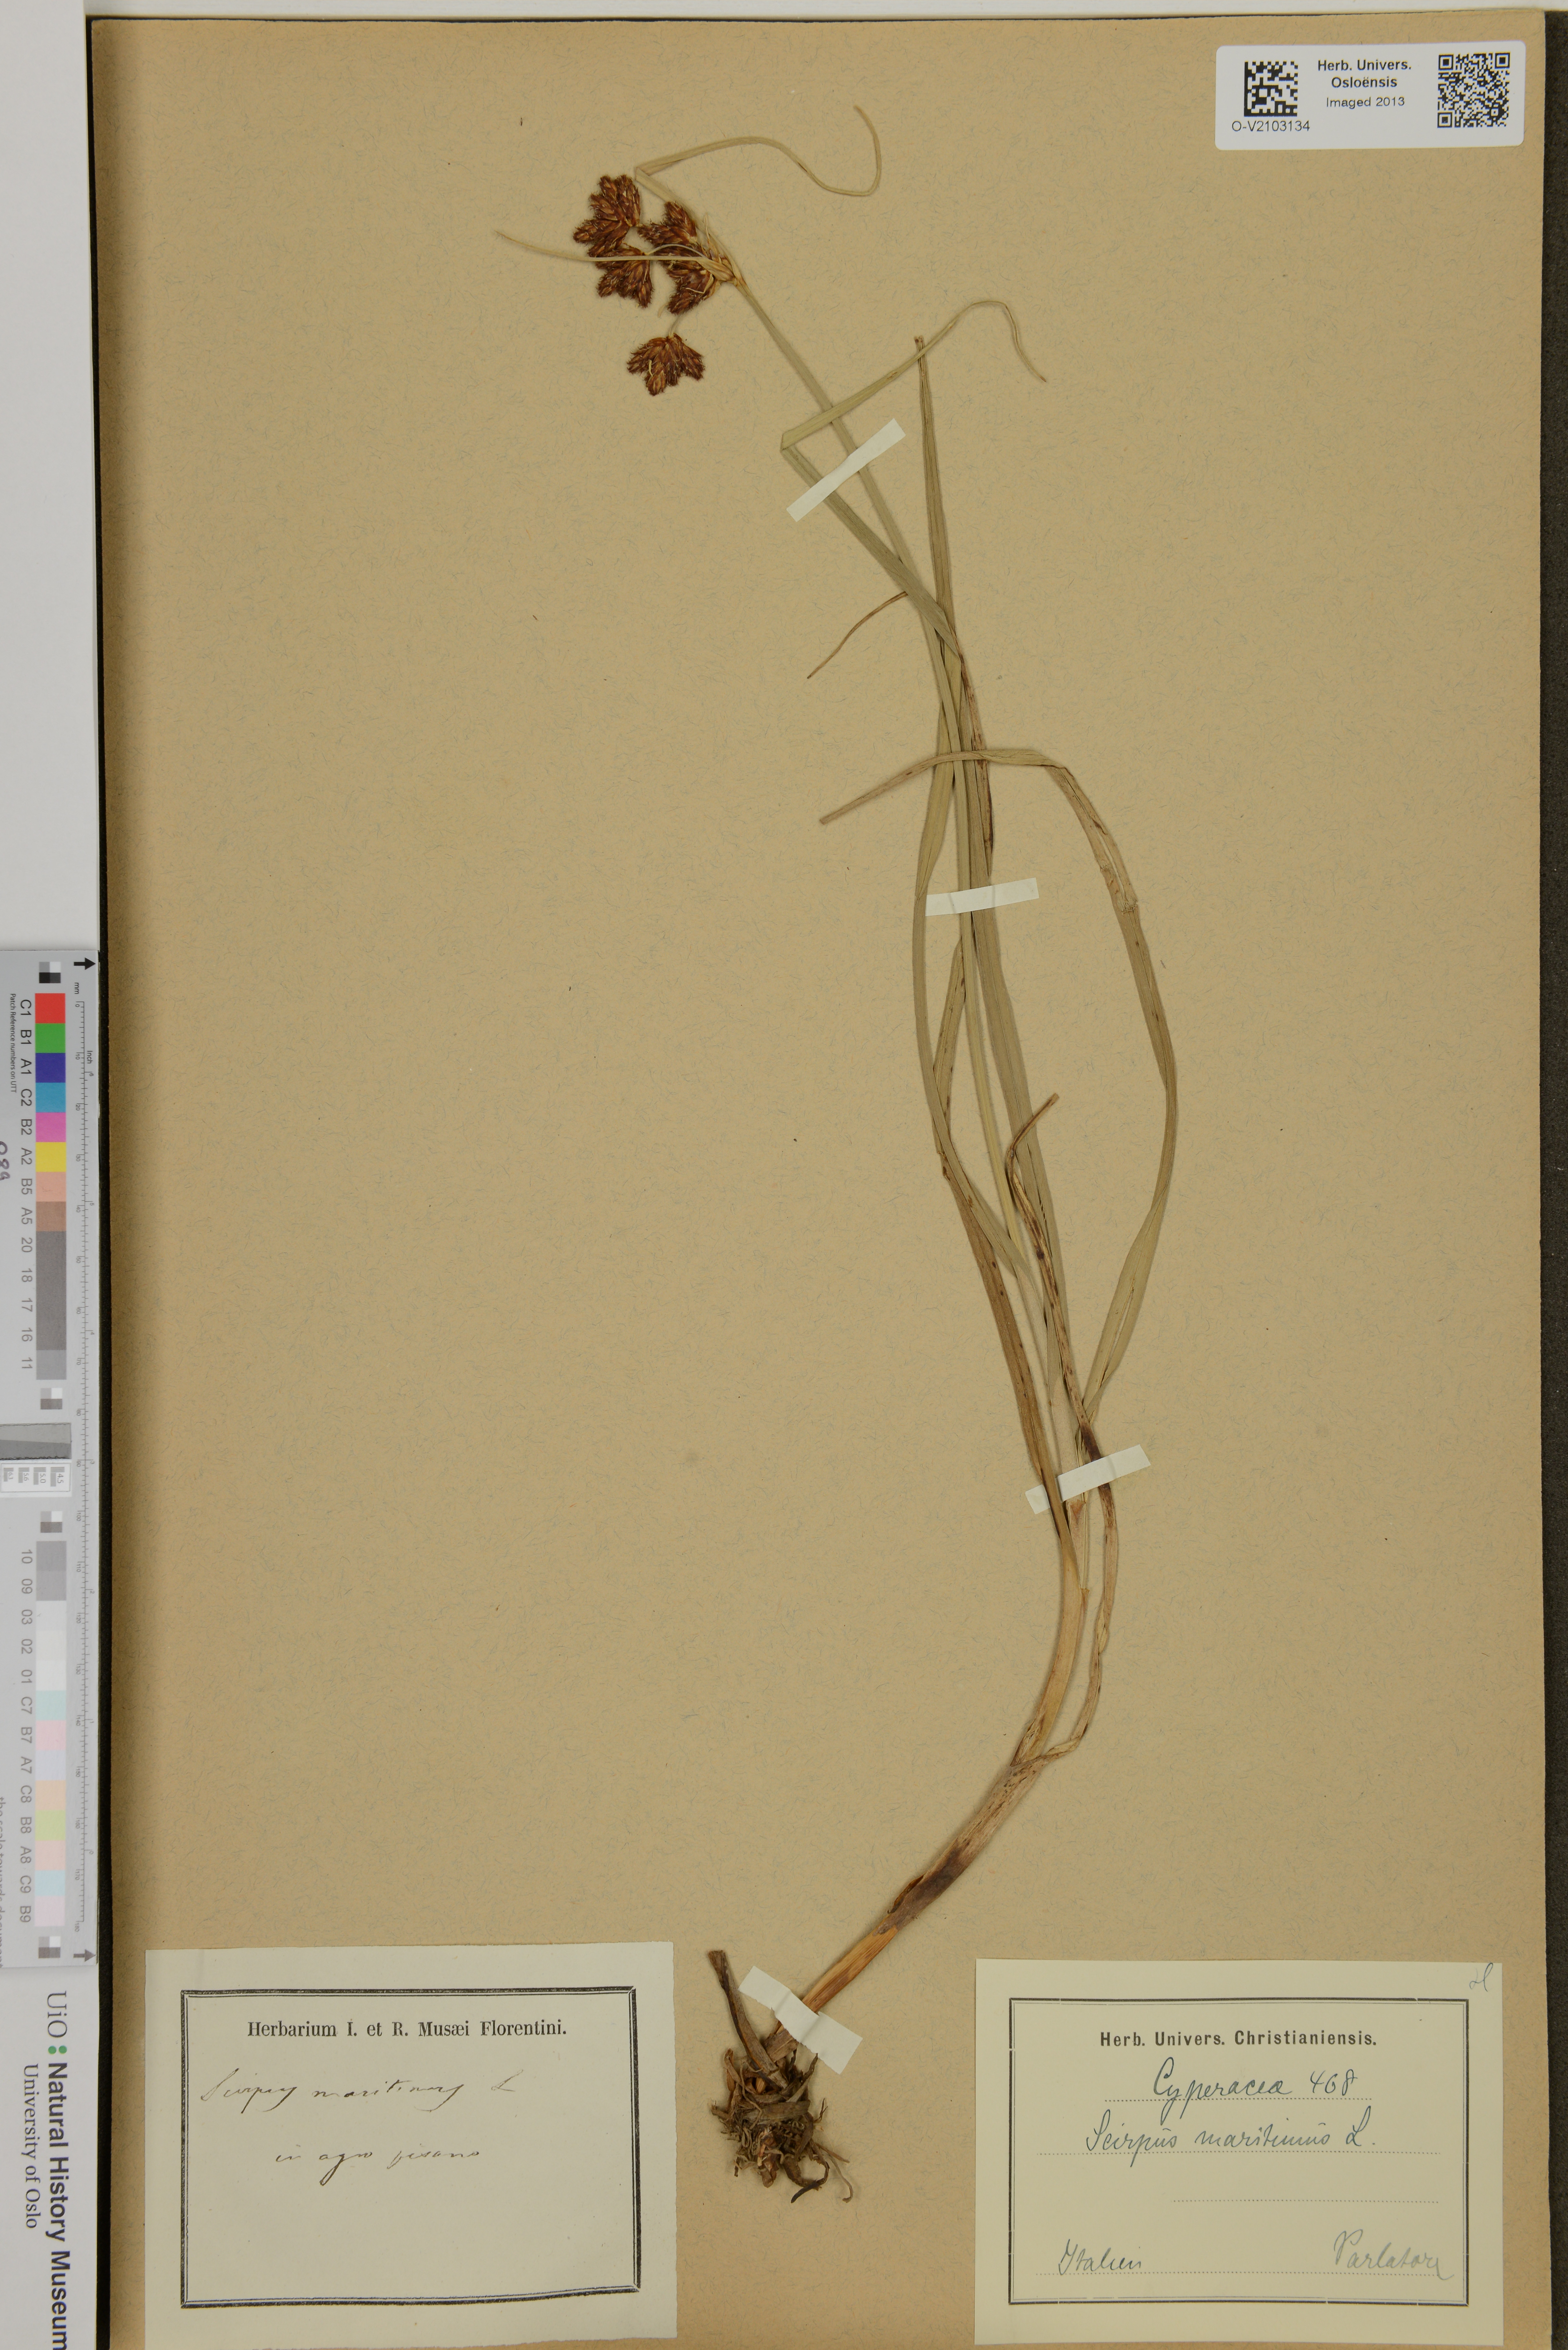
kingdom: Plantae
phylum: Tracheophyta
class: Liliopsida
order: Poales
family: Cyperaceae
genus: Bolboschoenus
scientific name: Bolboschoenus maritimus
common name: Sea club-rush
